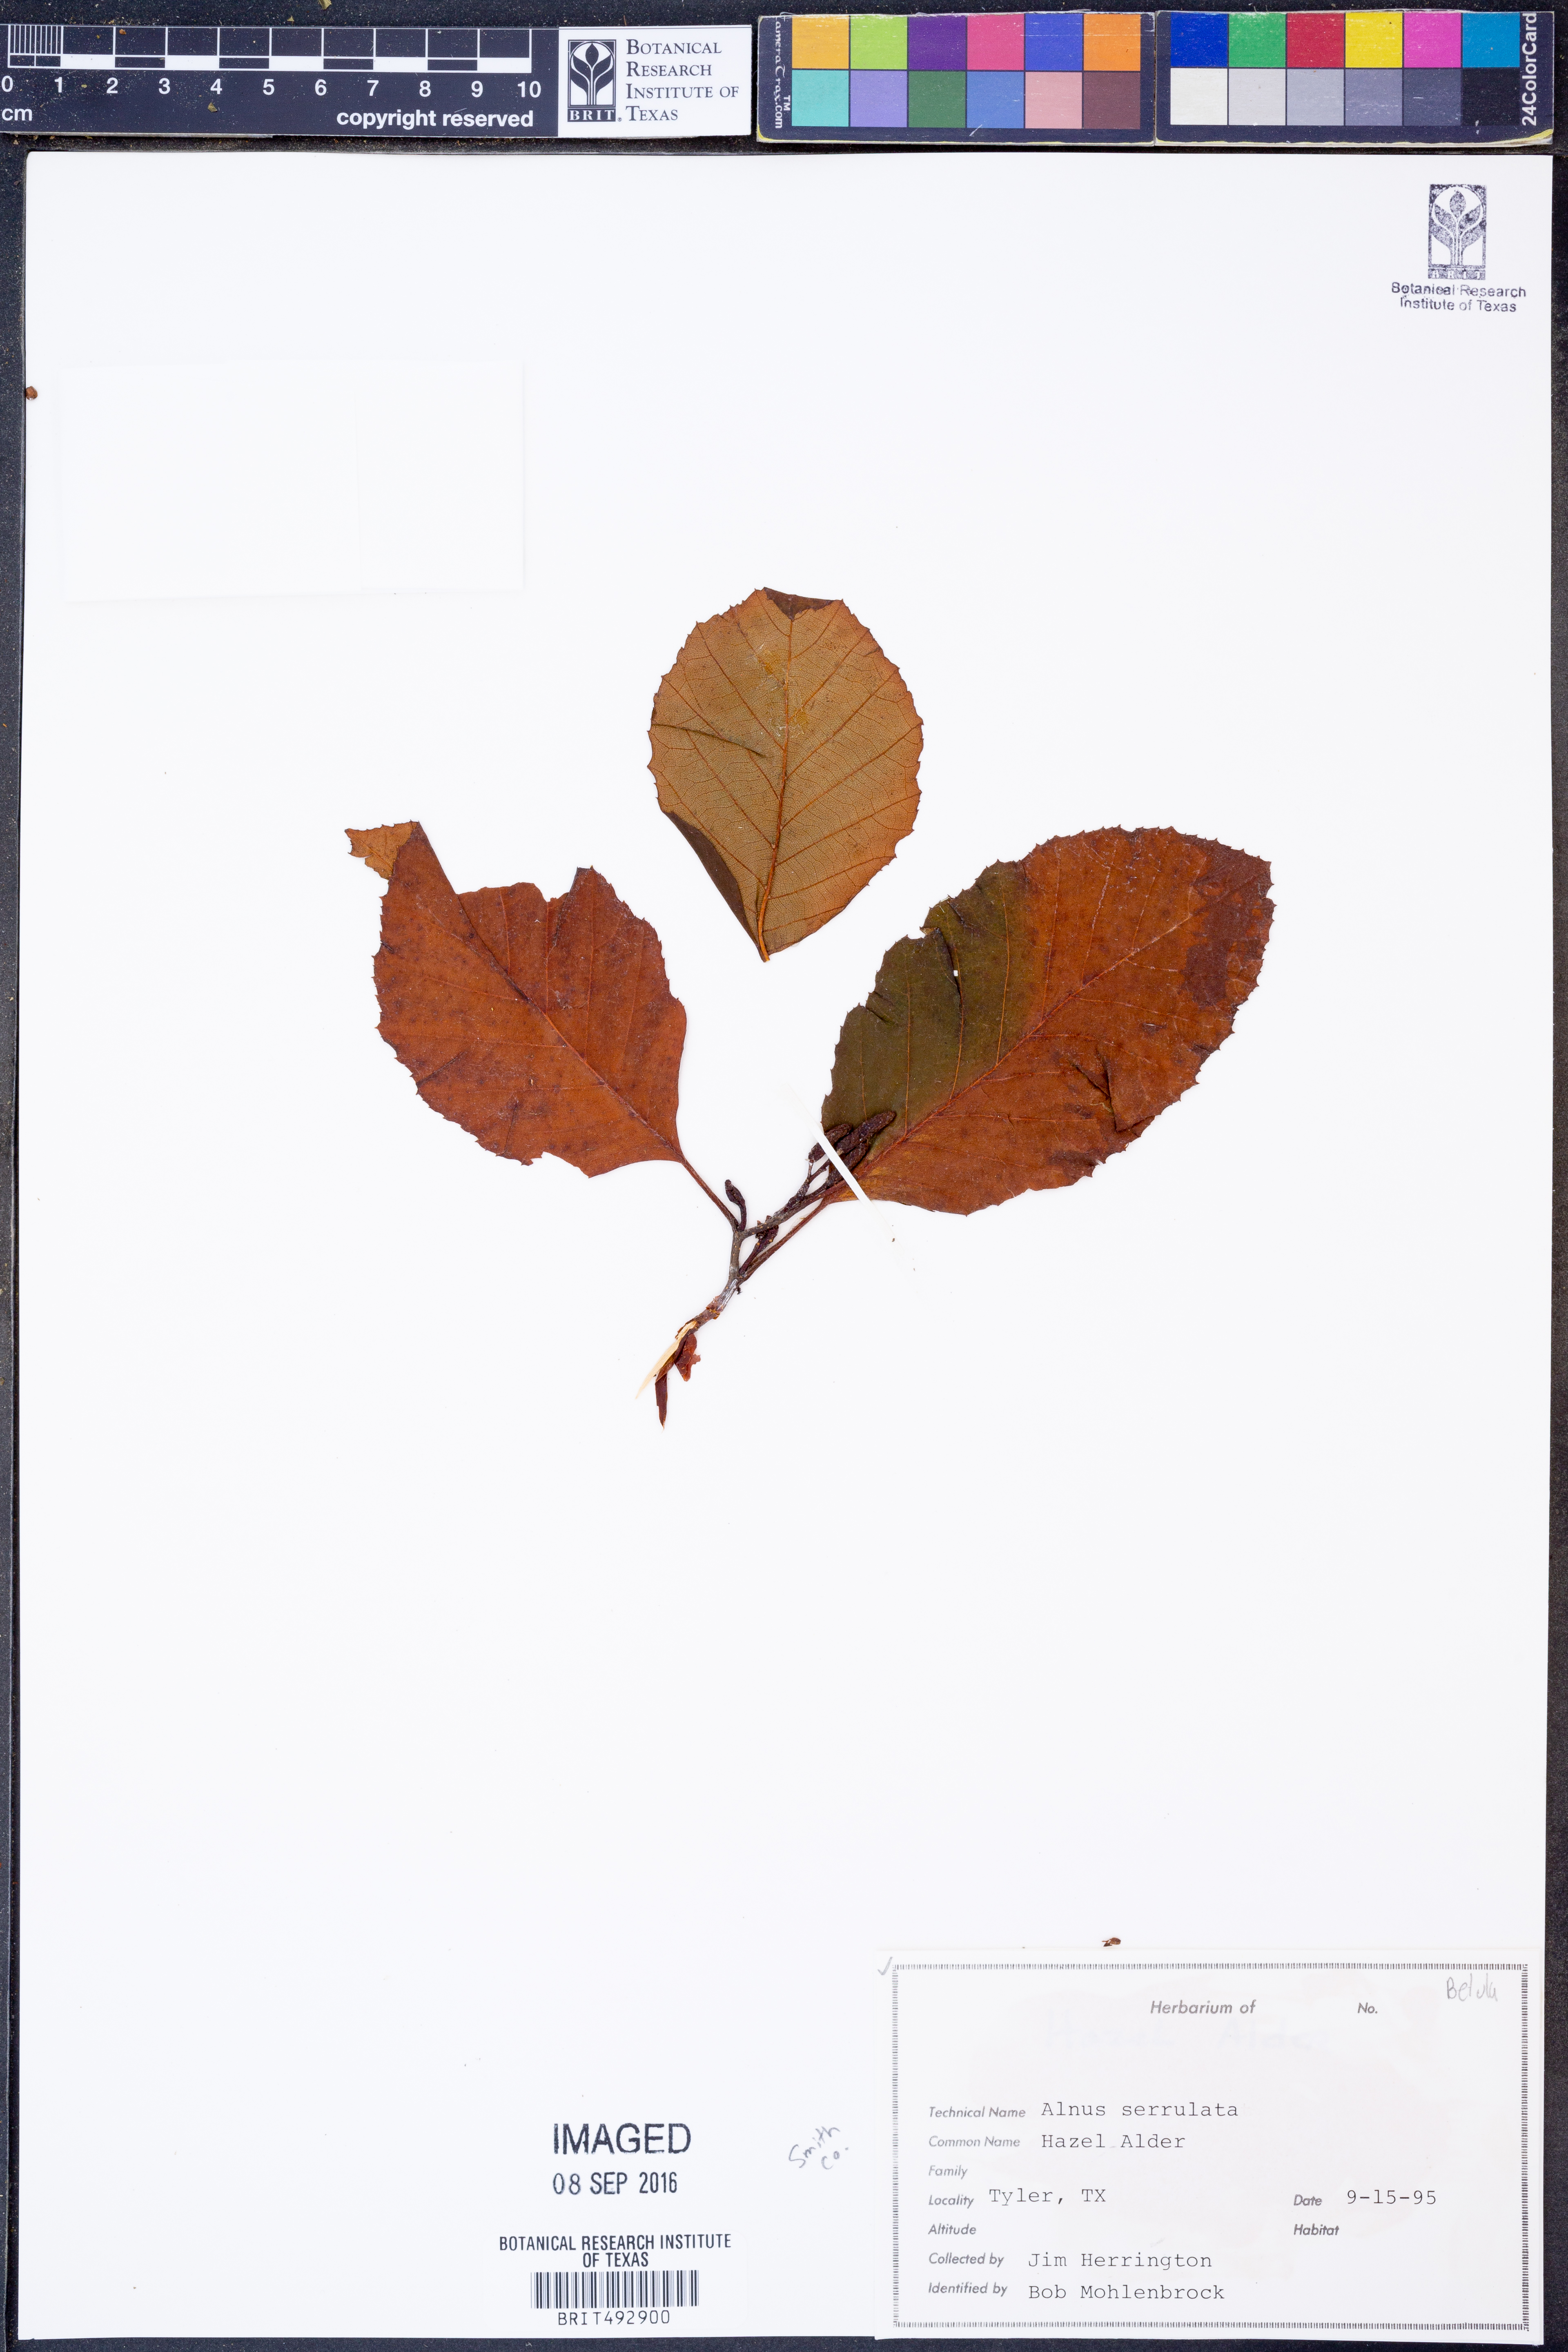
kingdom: Plantae
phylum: Tracheophyta
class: Magnoliopsida
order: Fagales
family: Betulaceae
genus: Alnus
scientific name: Alnus serrulata
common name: Hazel alder
